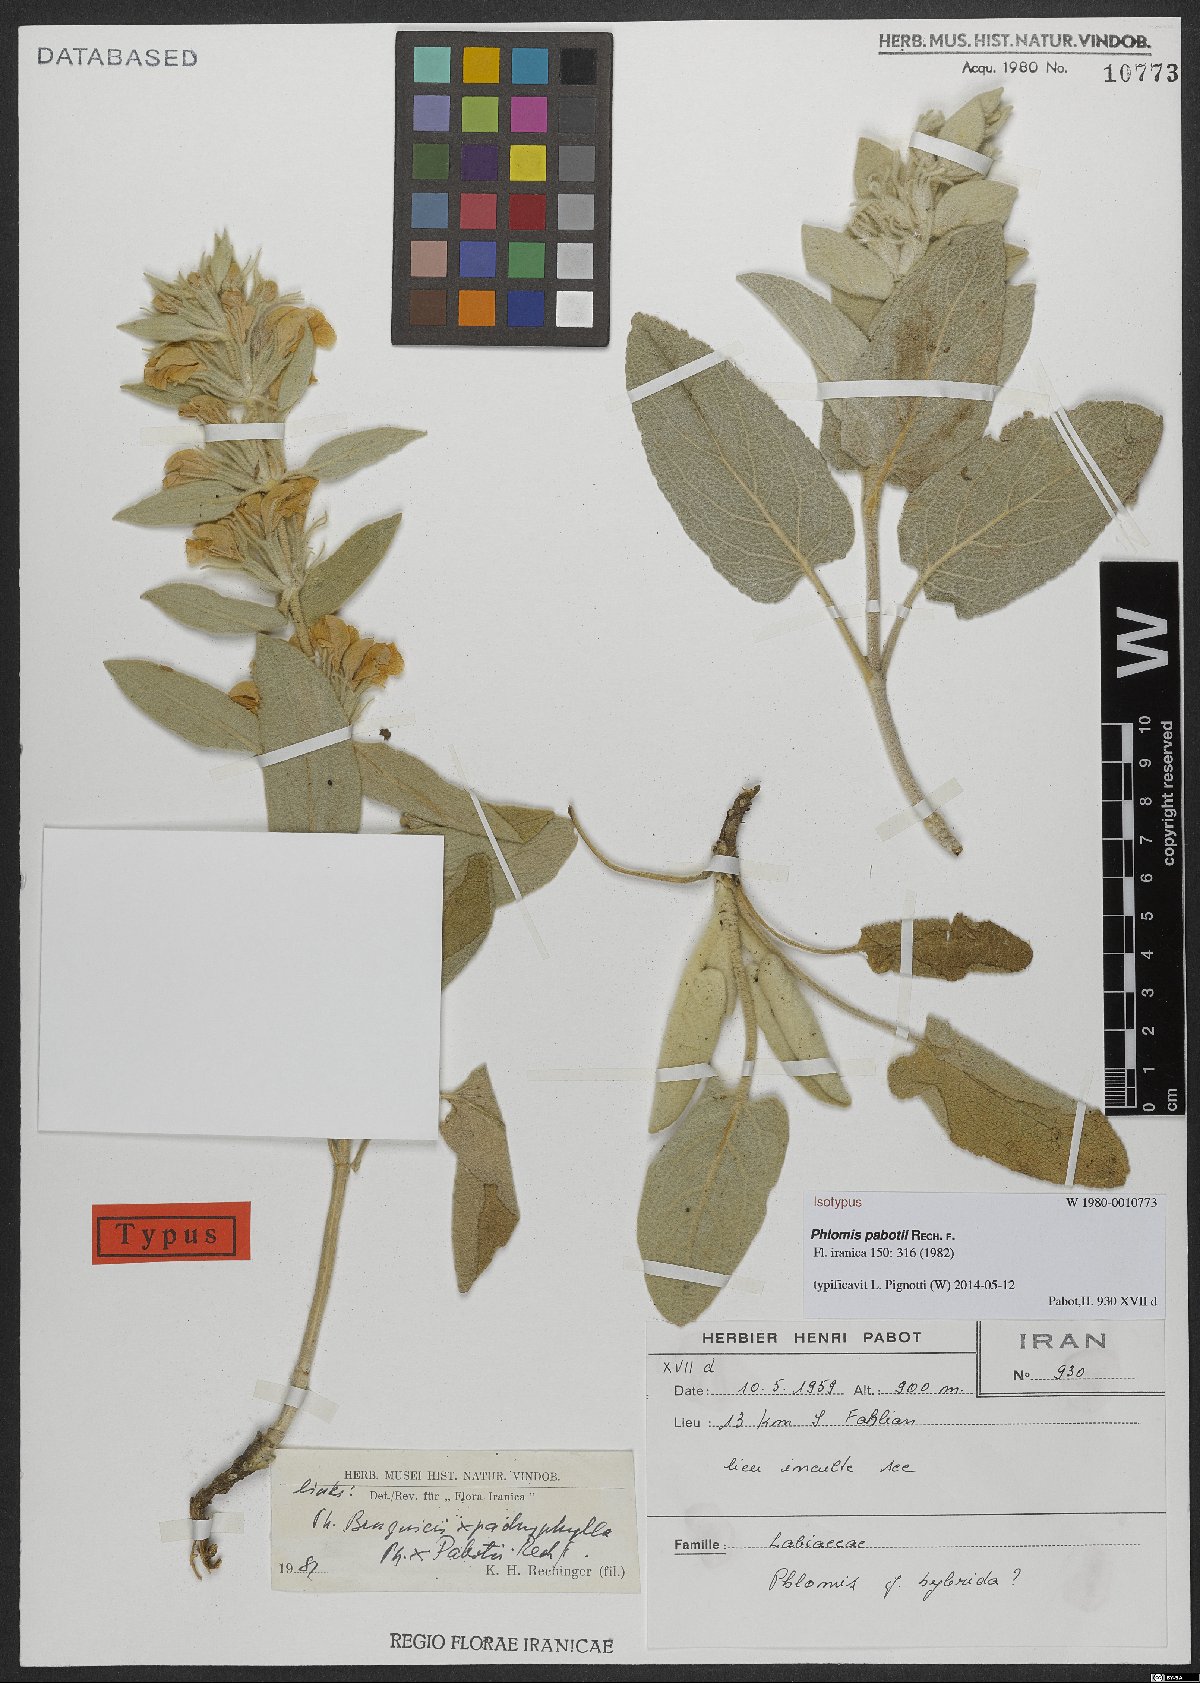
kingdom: Plantae
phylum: Tracheophyta
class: Magnoliopsida
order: Lamiales
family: Lamiaceae
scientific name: Lamiaceae
